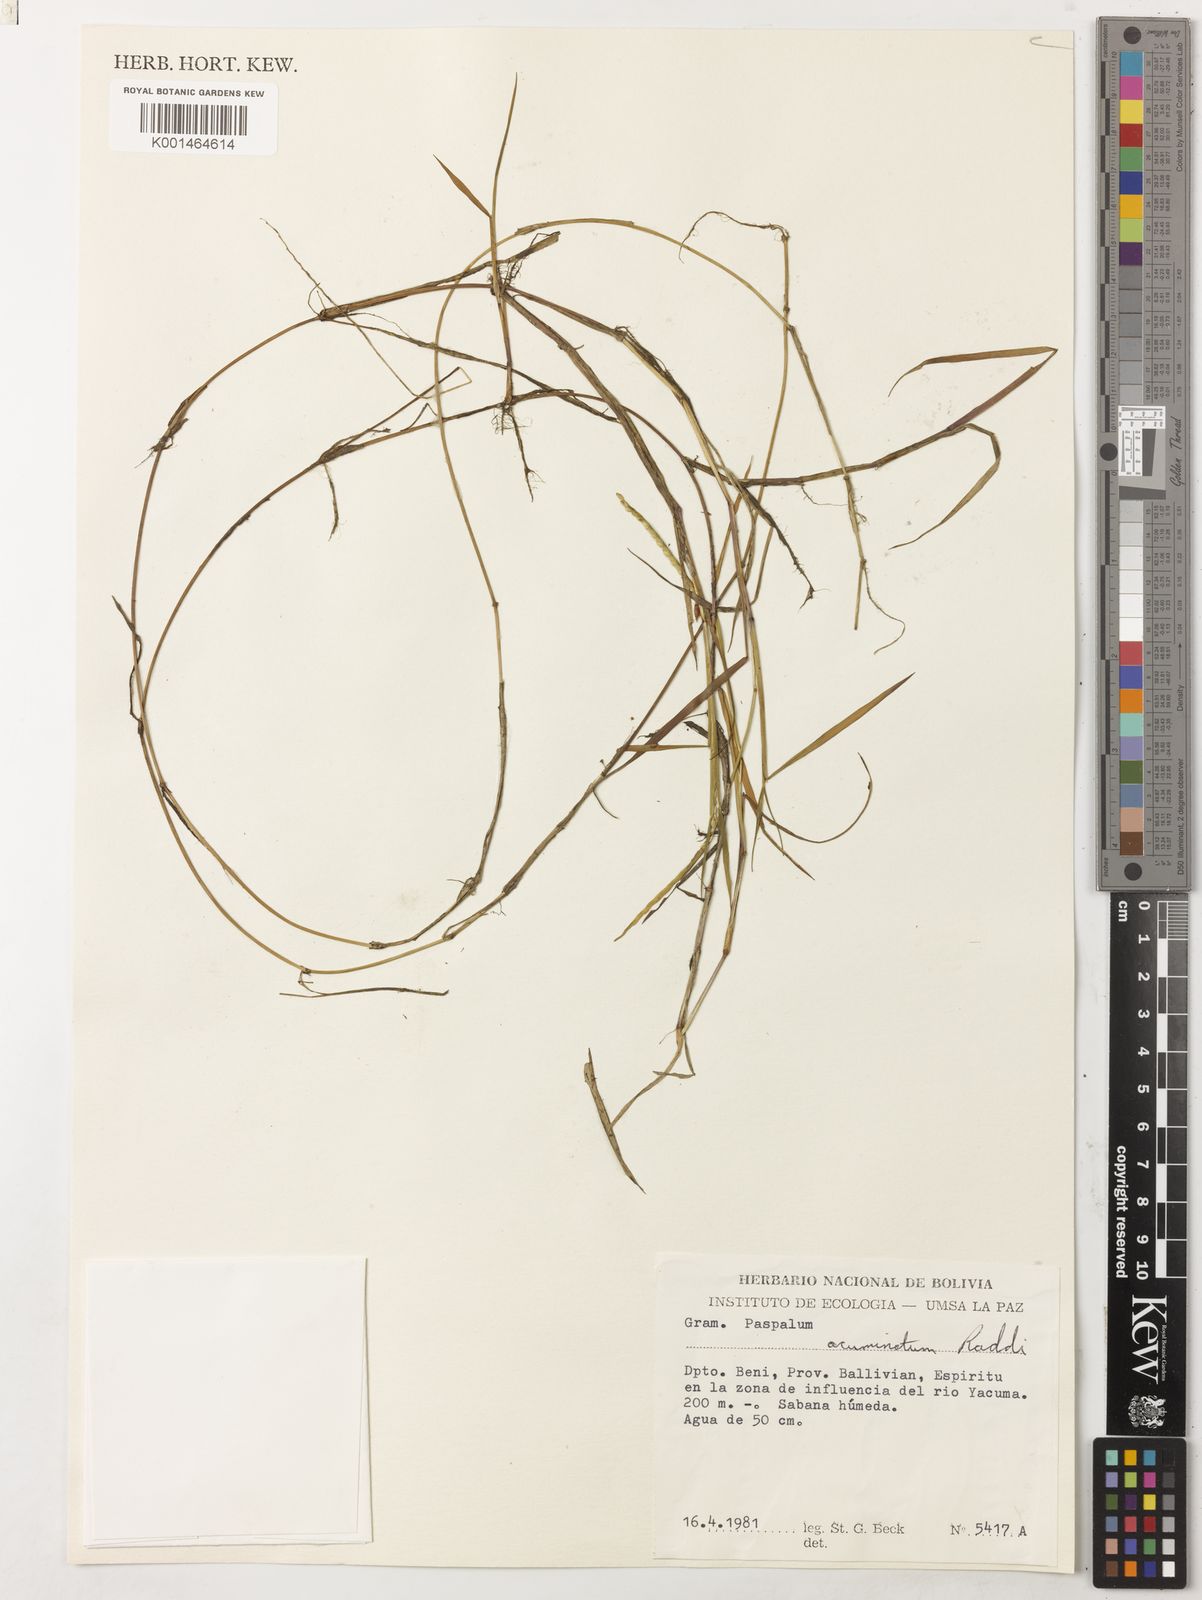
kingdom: Plantae
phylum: Tracheophyta
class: Liliopsida
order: Poales
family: Poaceae
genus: Paspalum
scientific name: Paspalum morichalense
